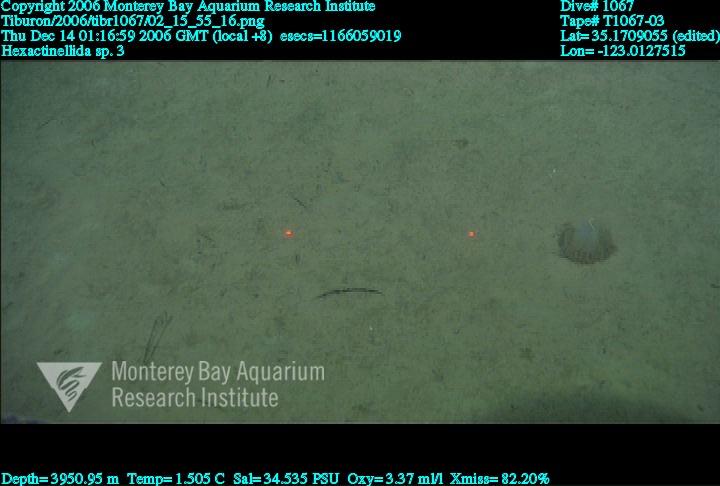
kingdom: Animalia
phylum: Porifera
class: Hexactinellida
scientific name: Hexactinellida
